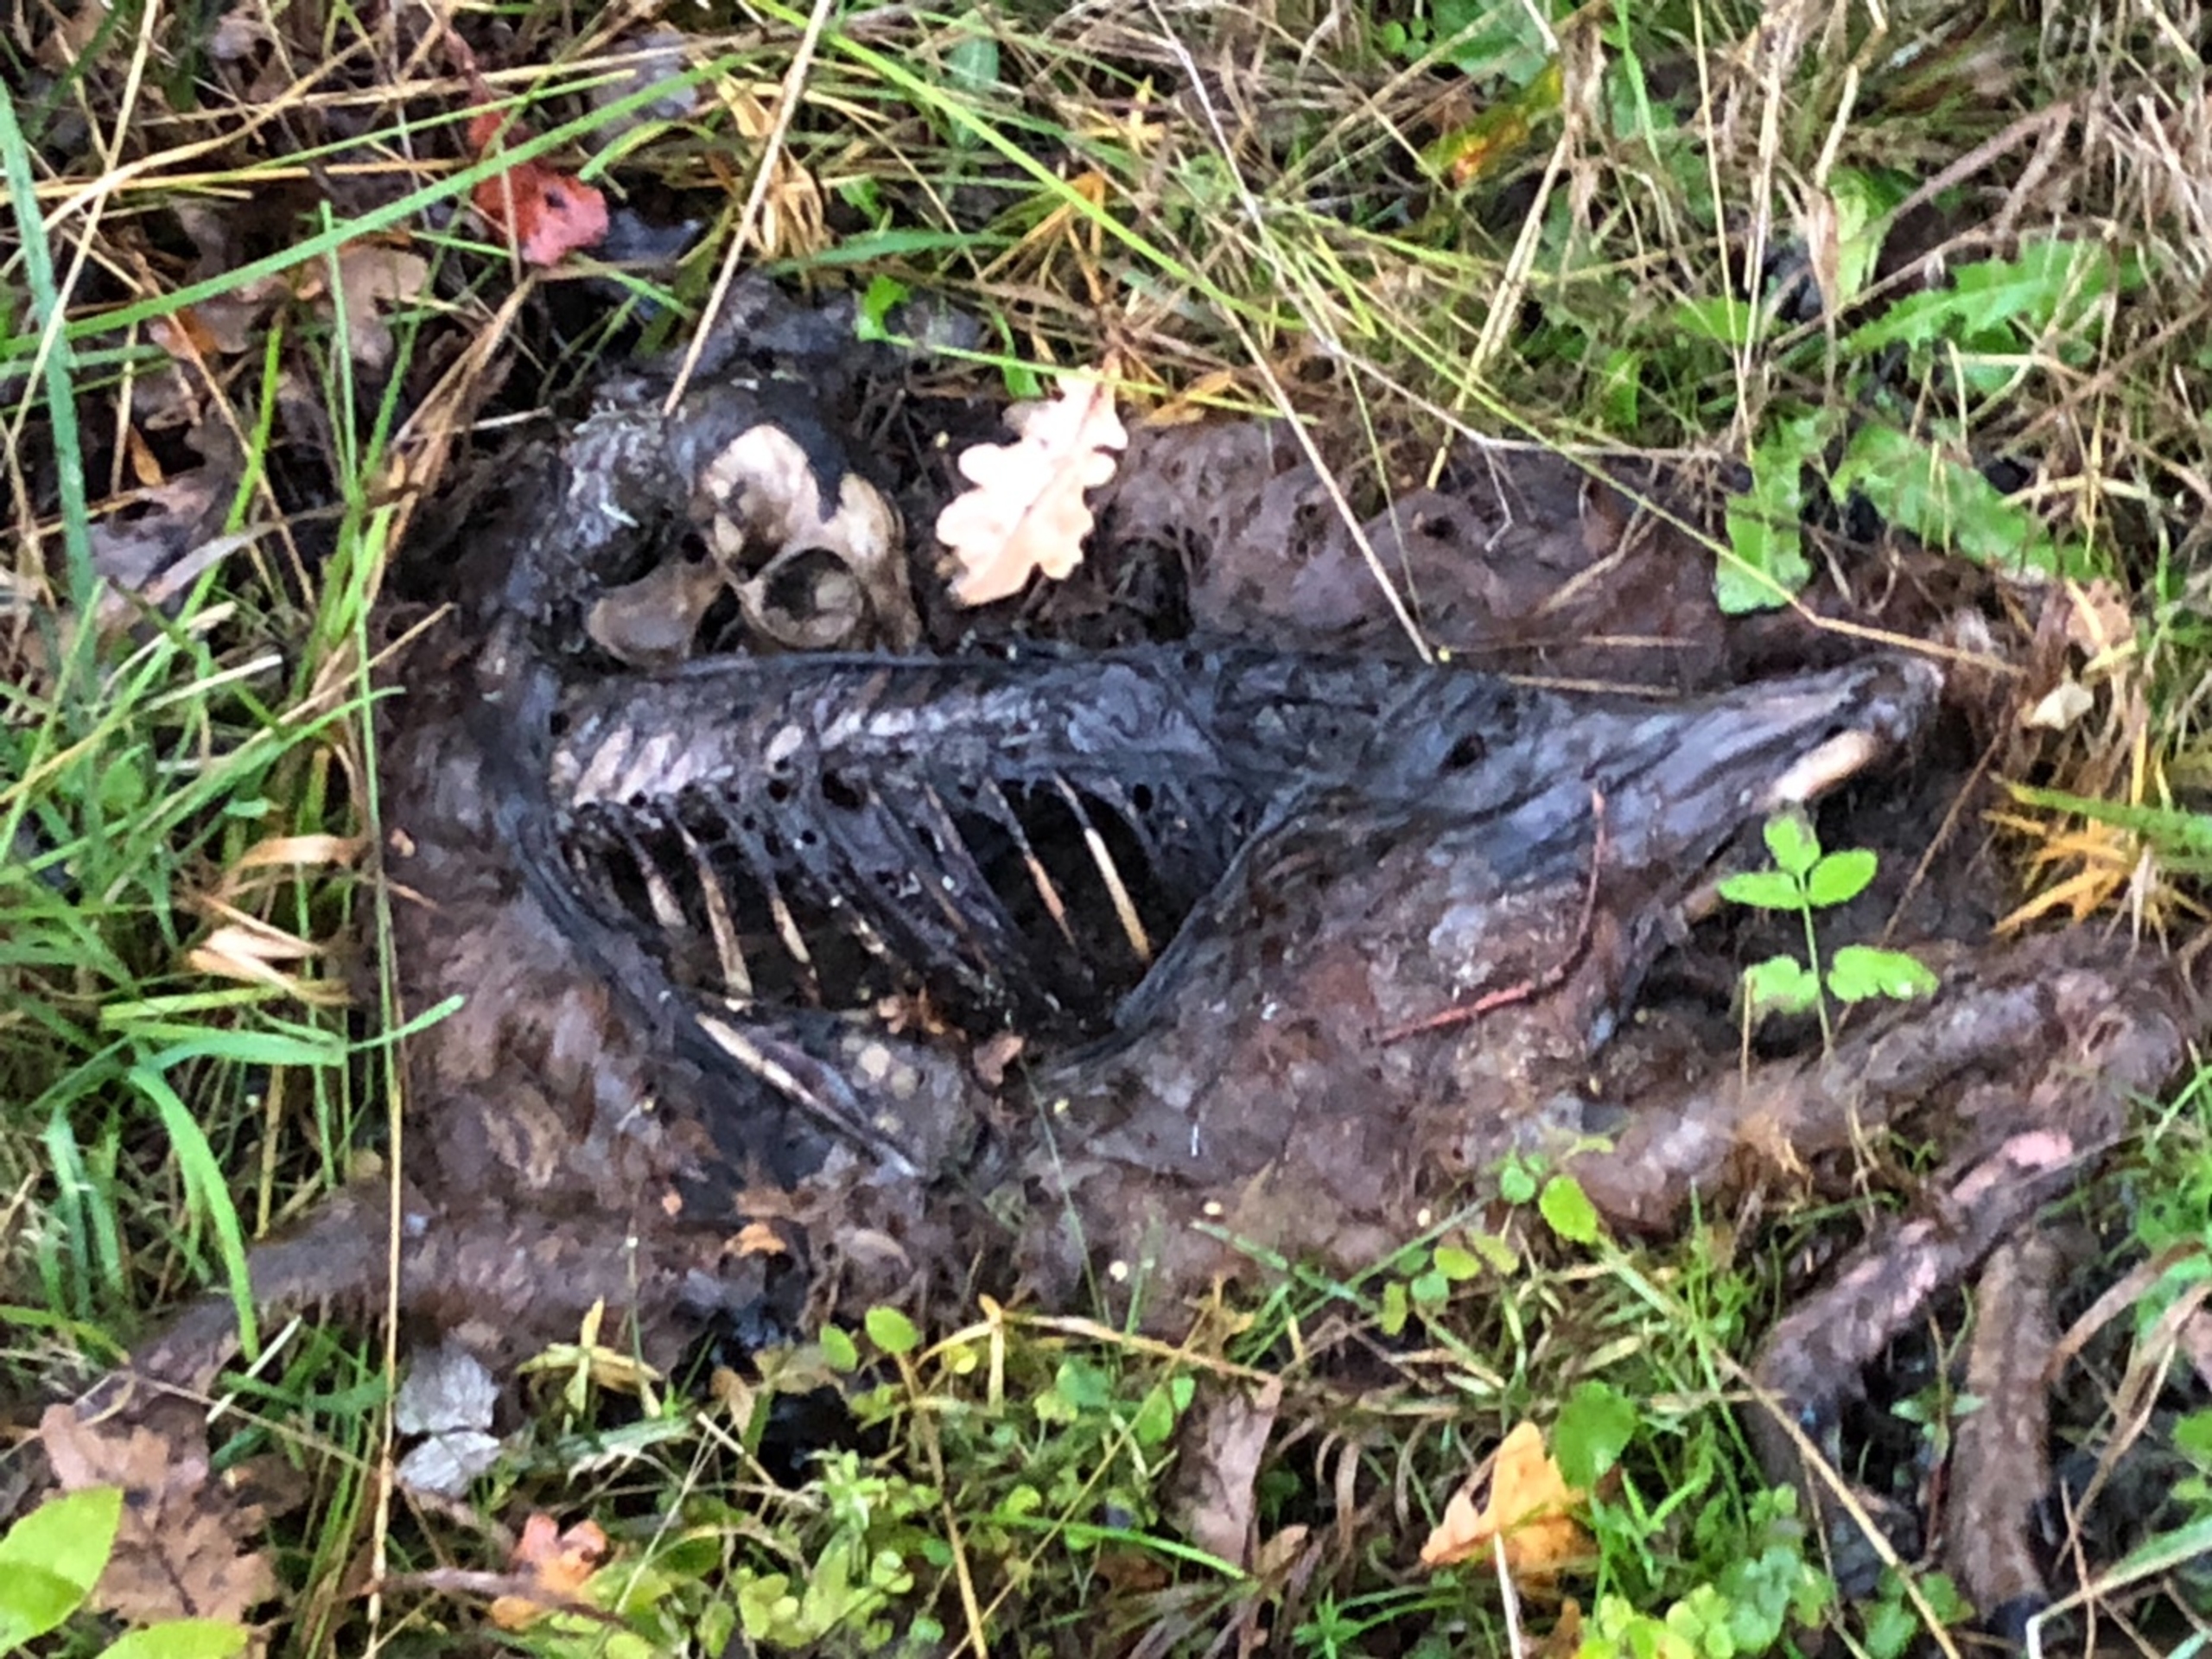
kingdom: Animalia
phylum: Chordata
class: Mammalia
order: Artiodactyla
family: Cervidae
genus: Capreolus
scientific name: Capreolus capreolus
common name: Rådyr
